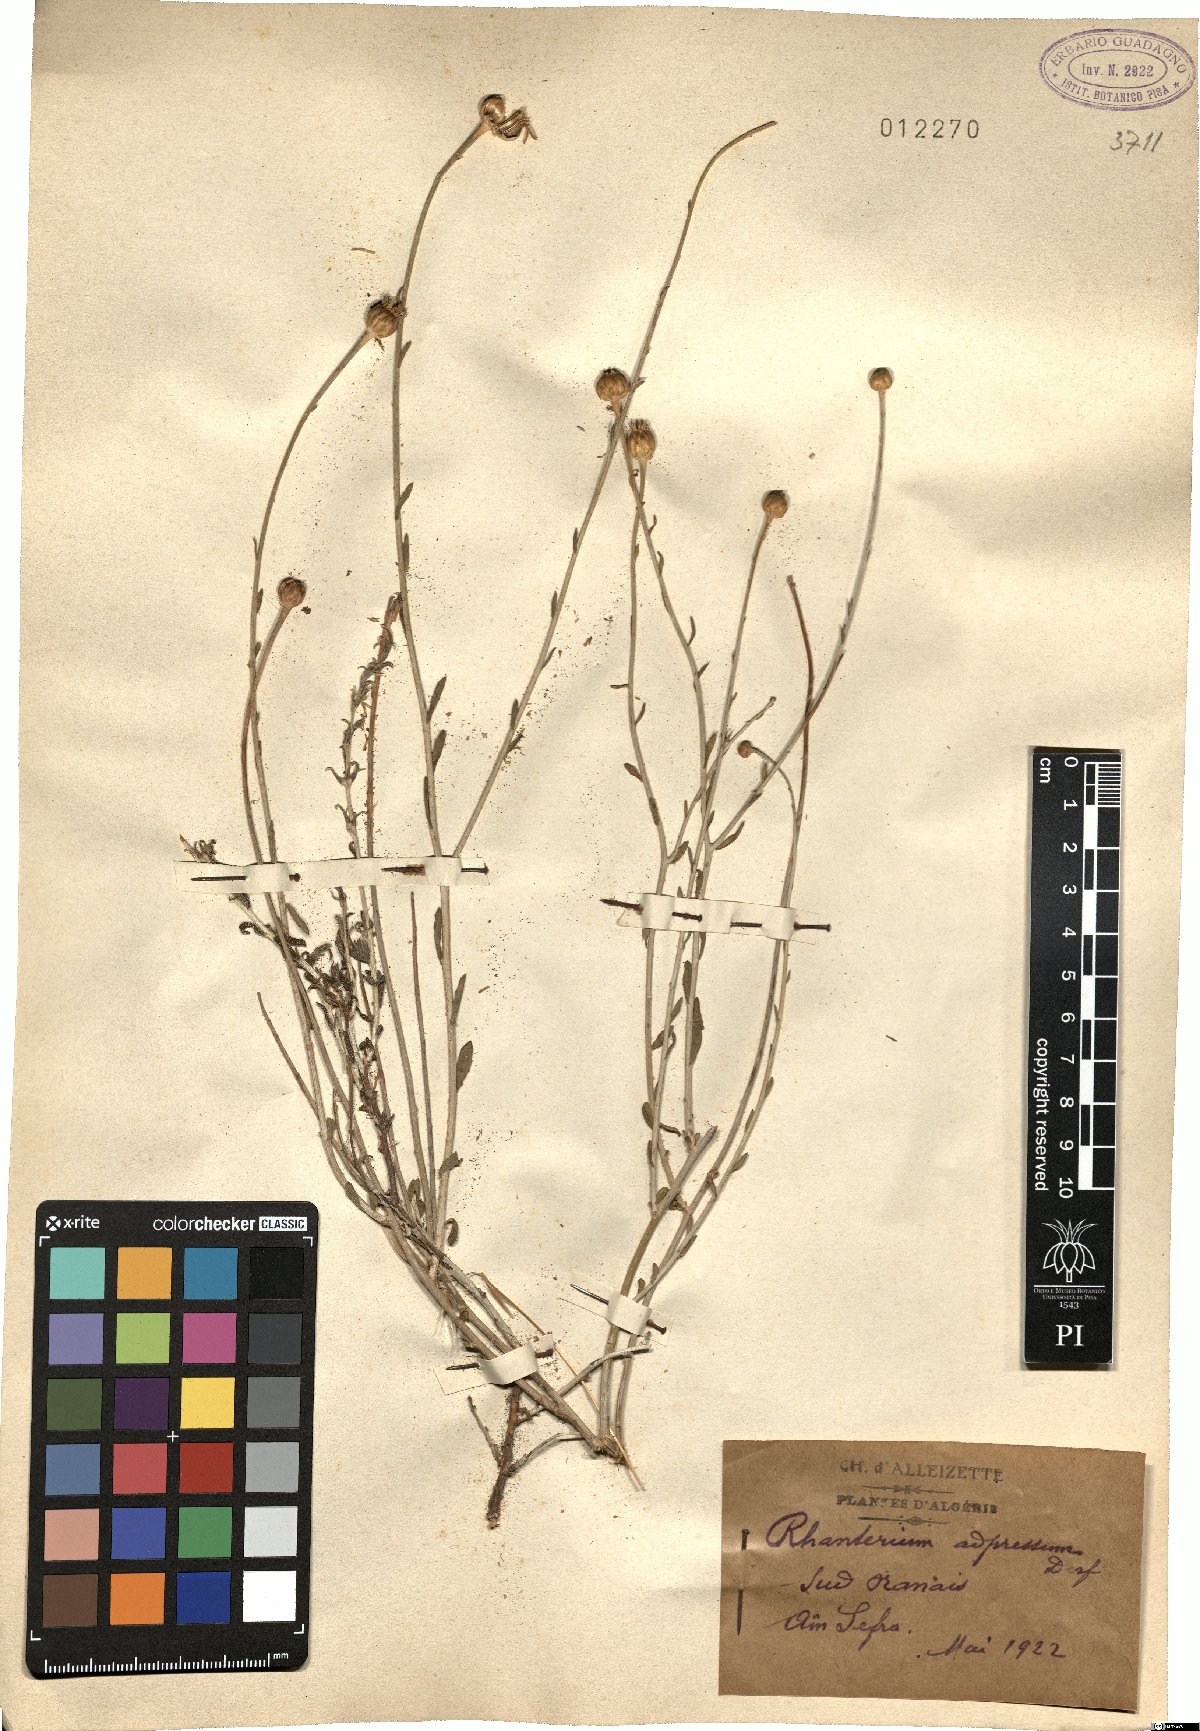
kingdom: Plantae
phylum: Tracheophyta
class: Magnoliopsida
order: Asterales
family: Asteraceae
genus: Rhanterium
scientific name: Rhanterium adpressum
